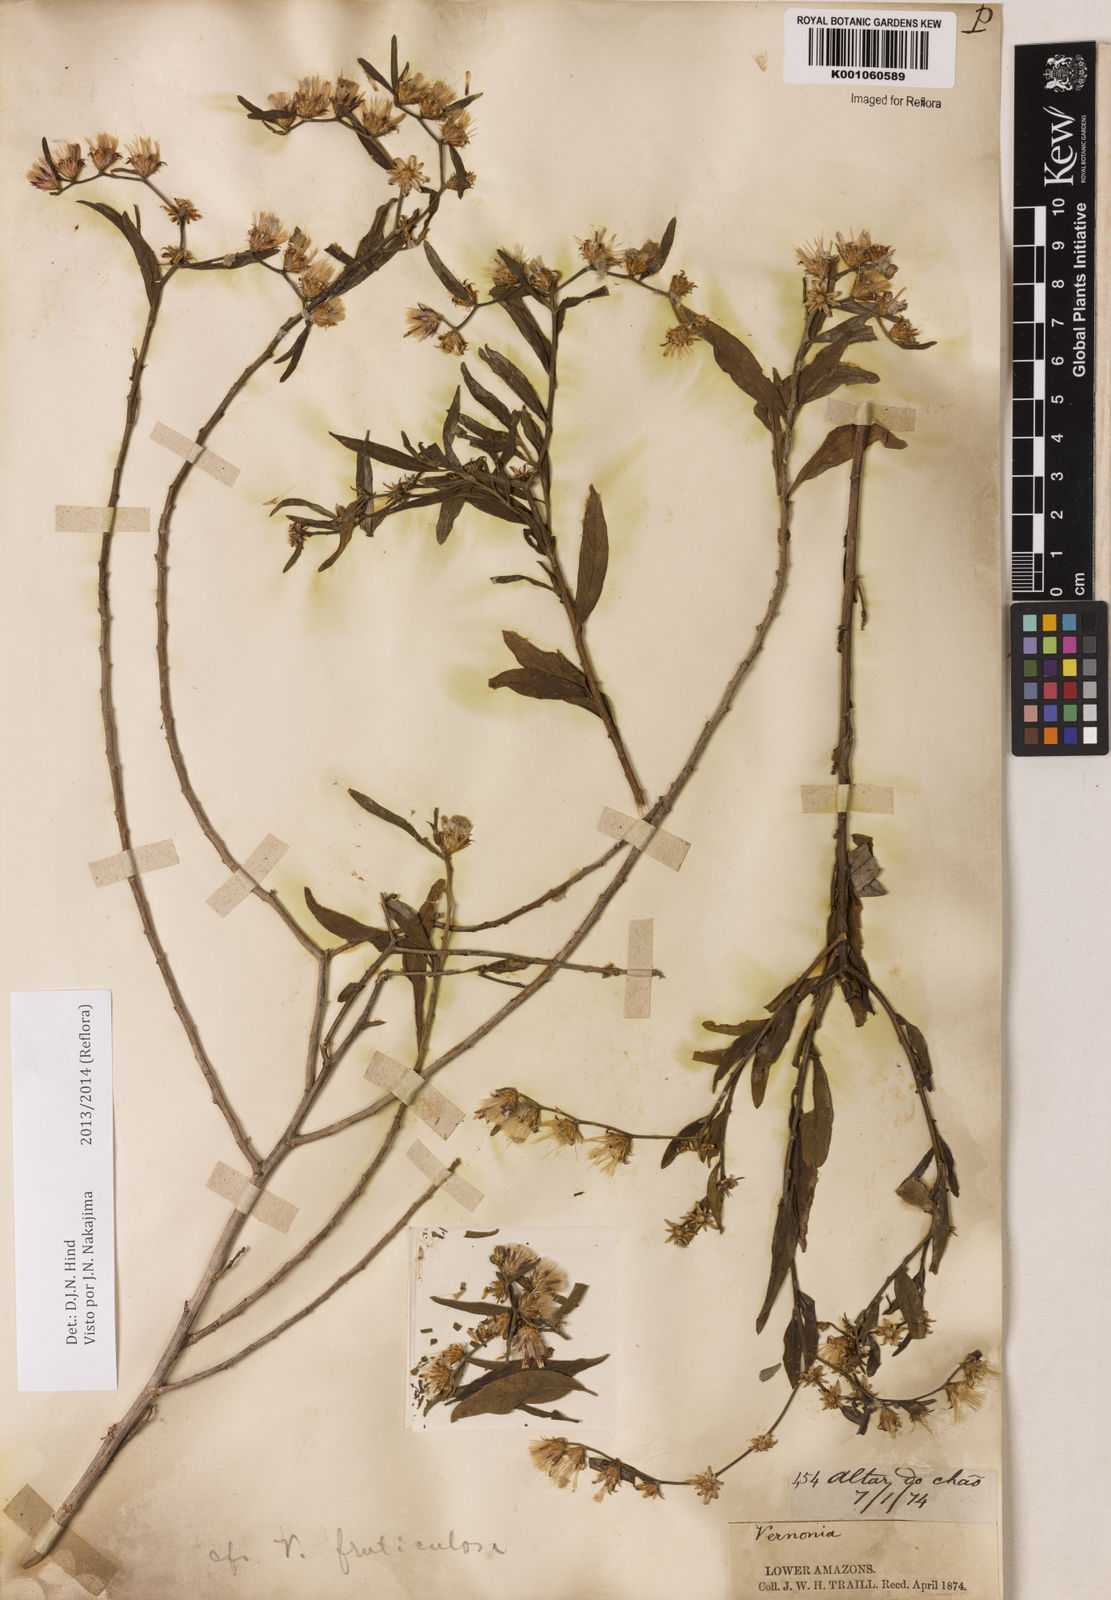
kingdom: Plantae
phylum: Tracheophyta
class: Magnoliopsida
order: Asterales
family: Asteraceae
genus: Lepidaploa
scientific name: Lepidaploa rufogrisea
